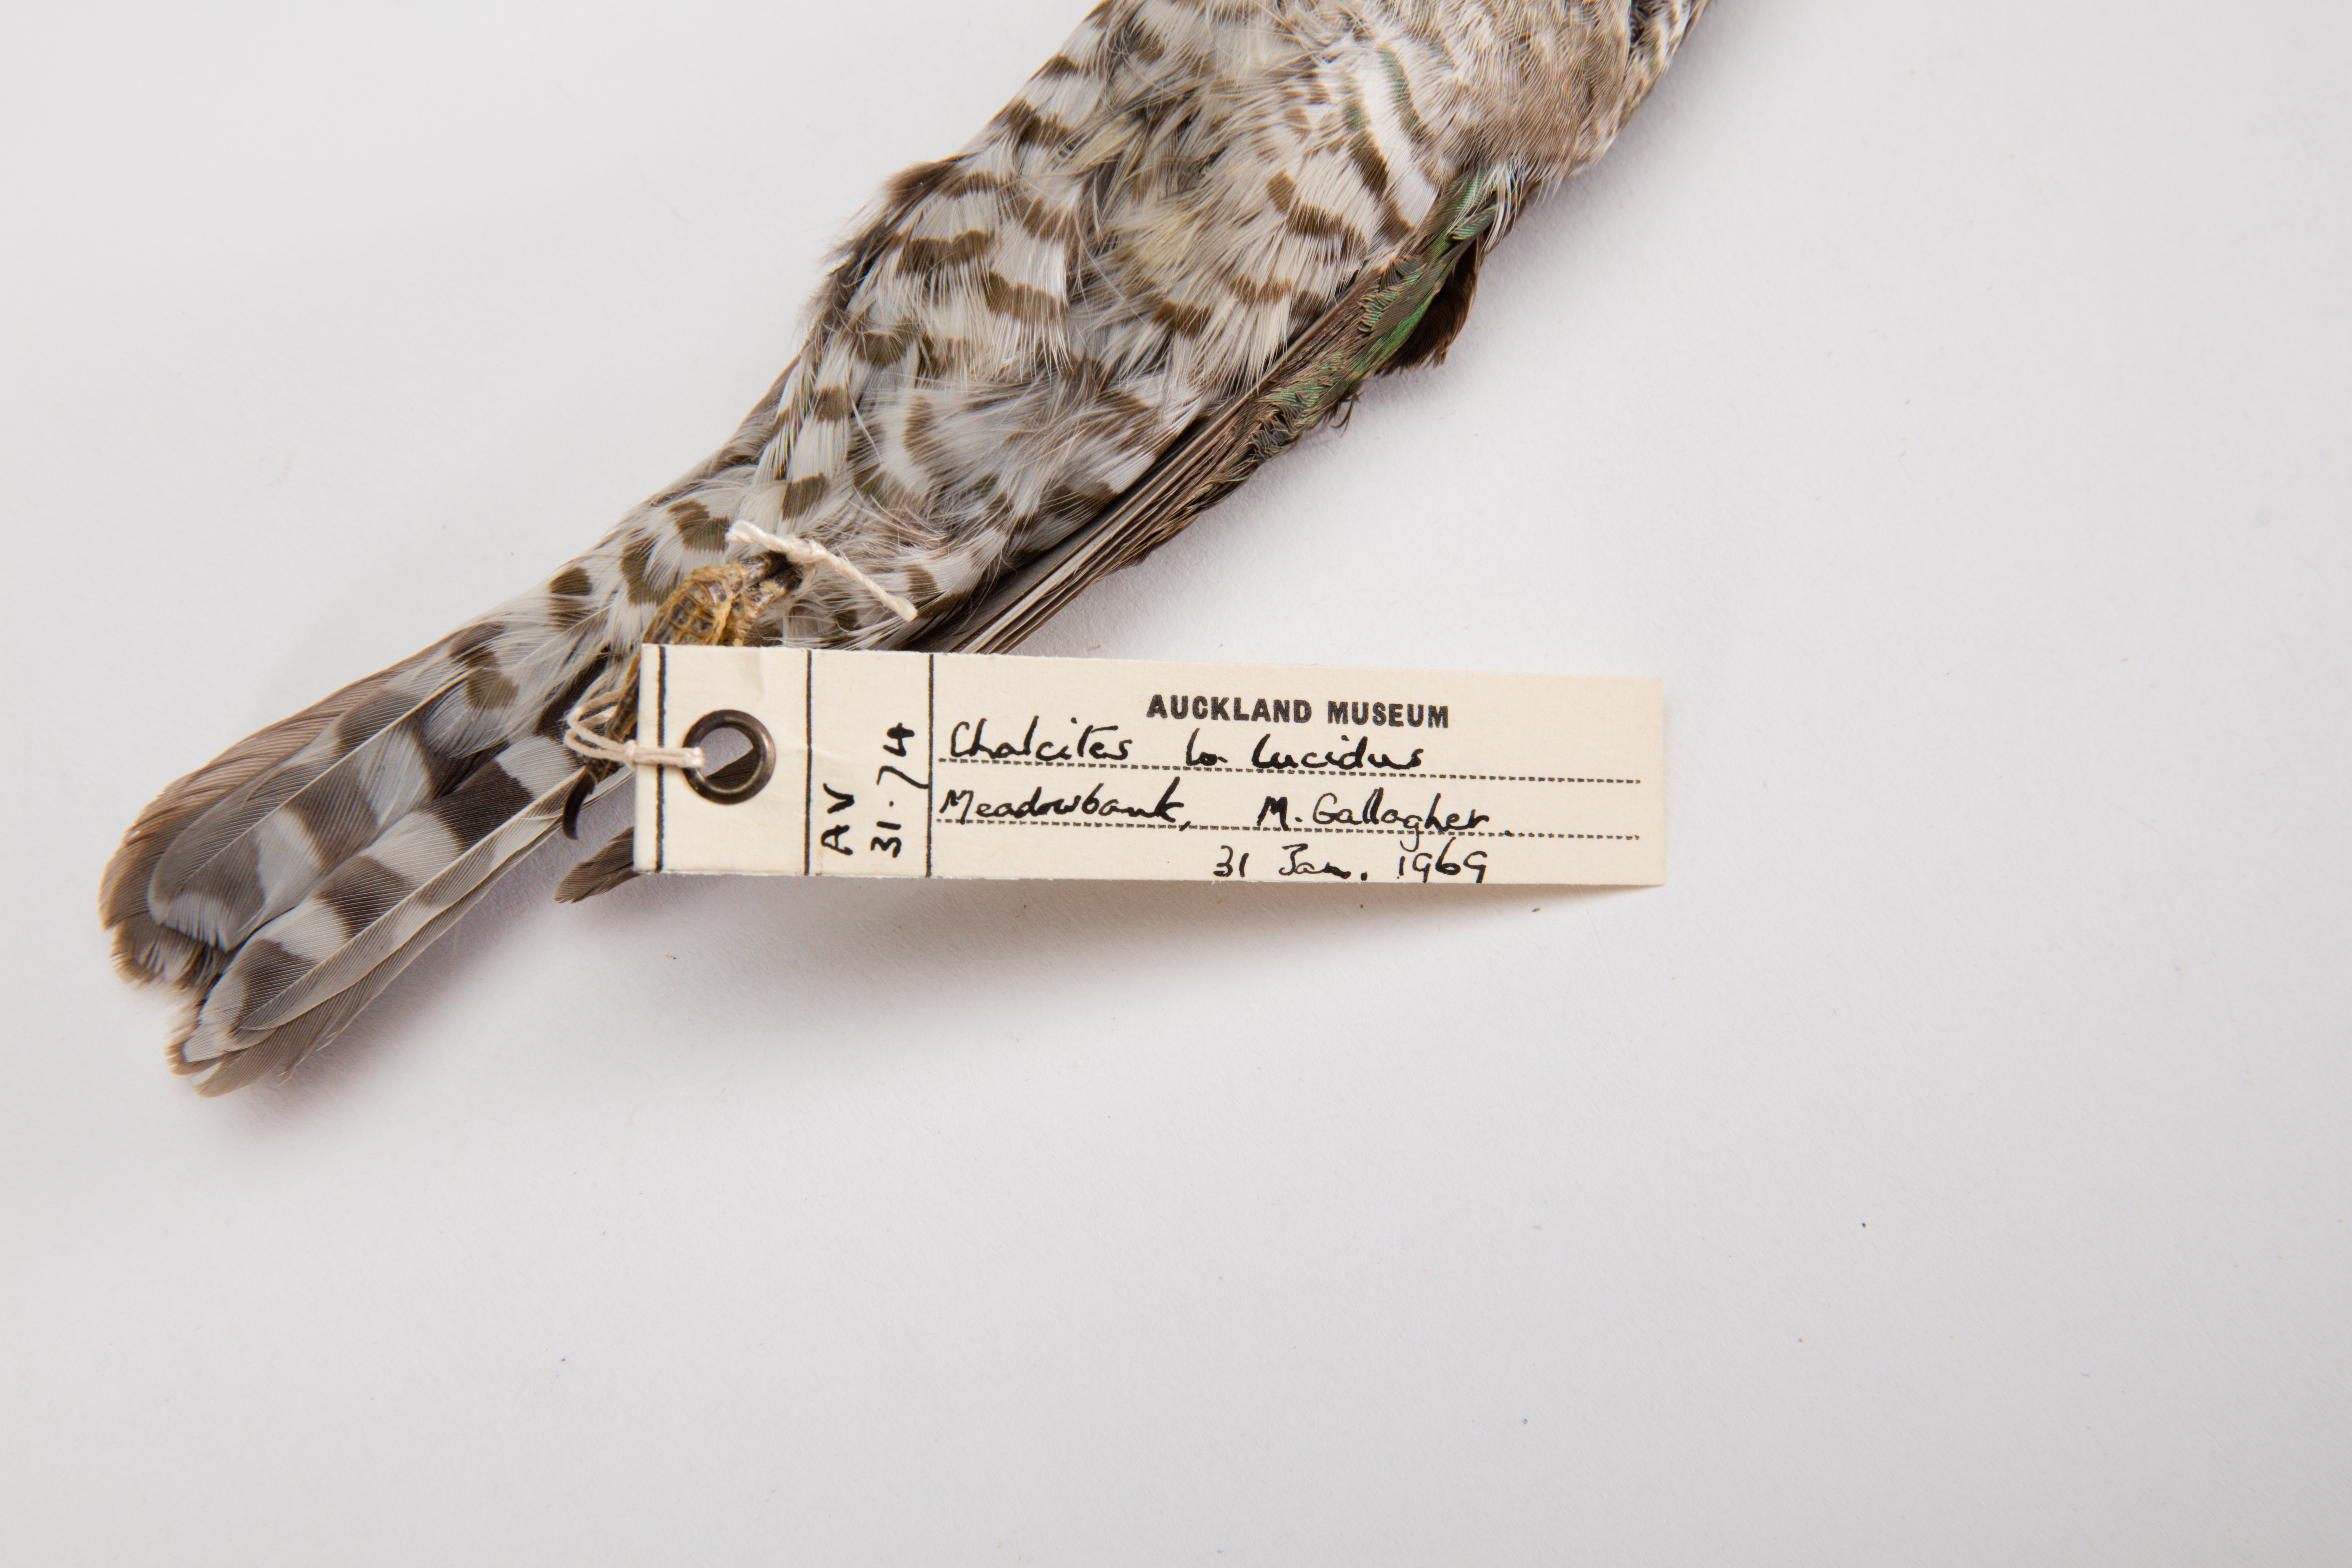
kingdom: Animalia
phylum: Chordata
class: Aves
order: Cuculiformes
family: Cuculidae
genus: Chrysococcyx
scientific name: Chrysococcyx lucidus
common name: Shining bronze cuckoo
